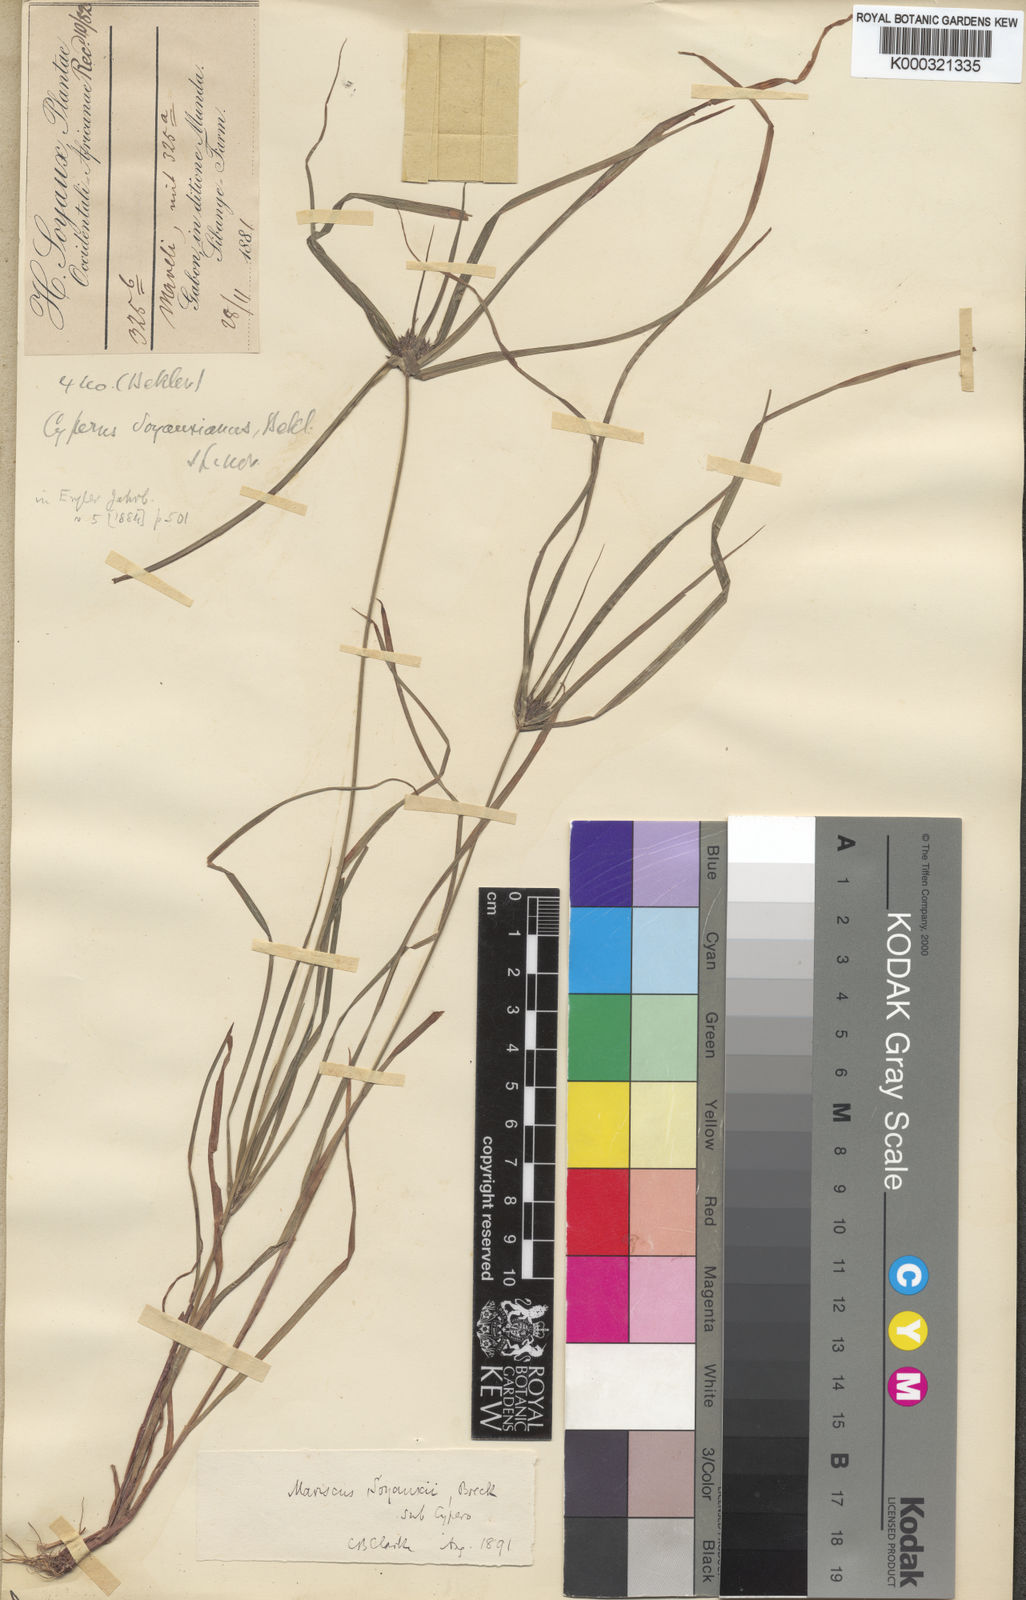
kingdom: Plantae
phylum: Tracheophyta
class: Liliopsida
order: Poales
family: Cyperaceae
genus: Cyperus
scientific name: Cyperus soyauxii
